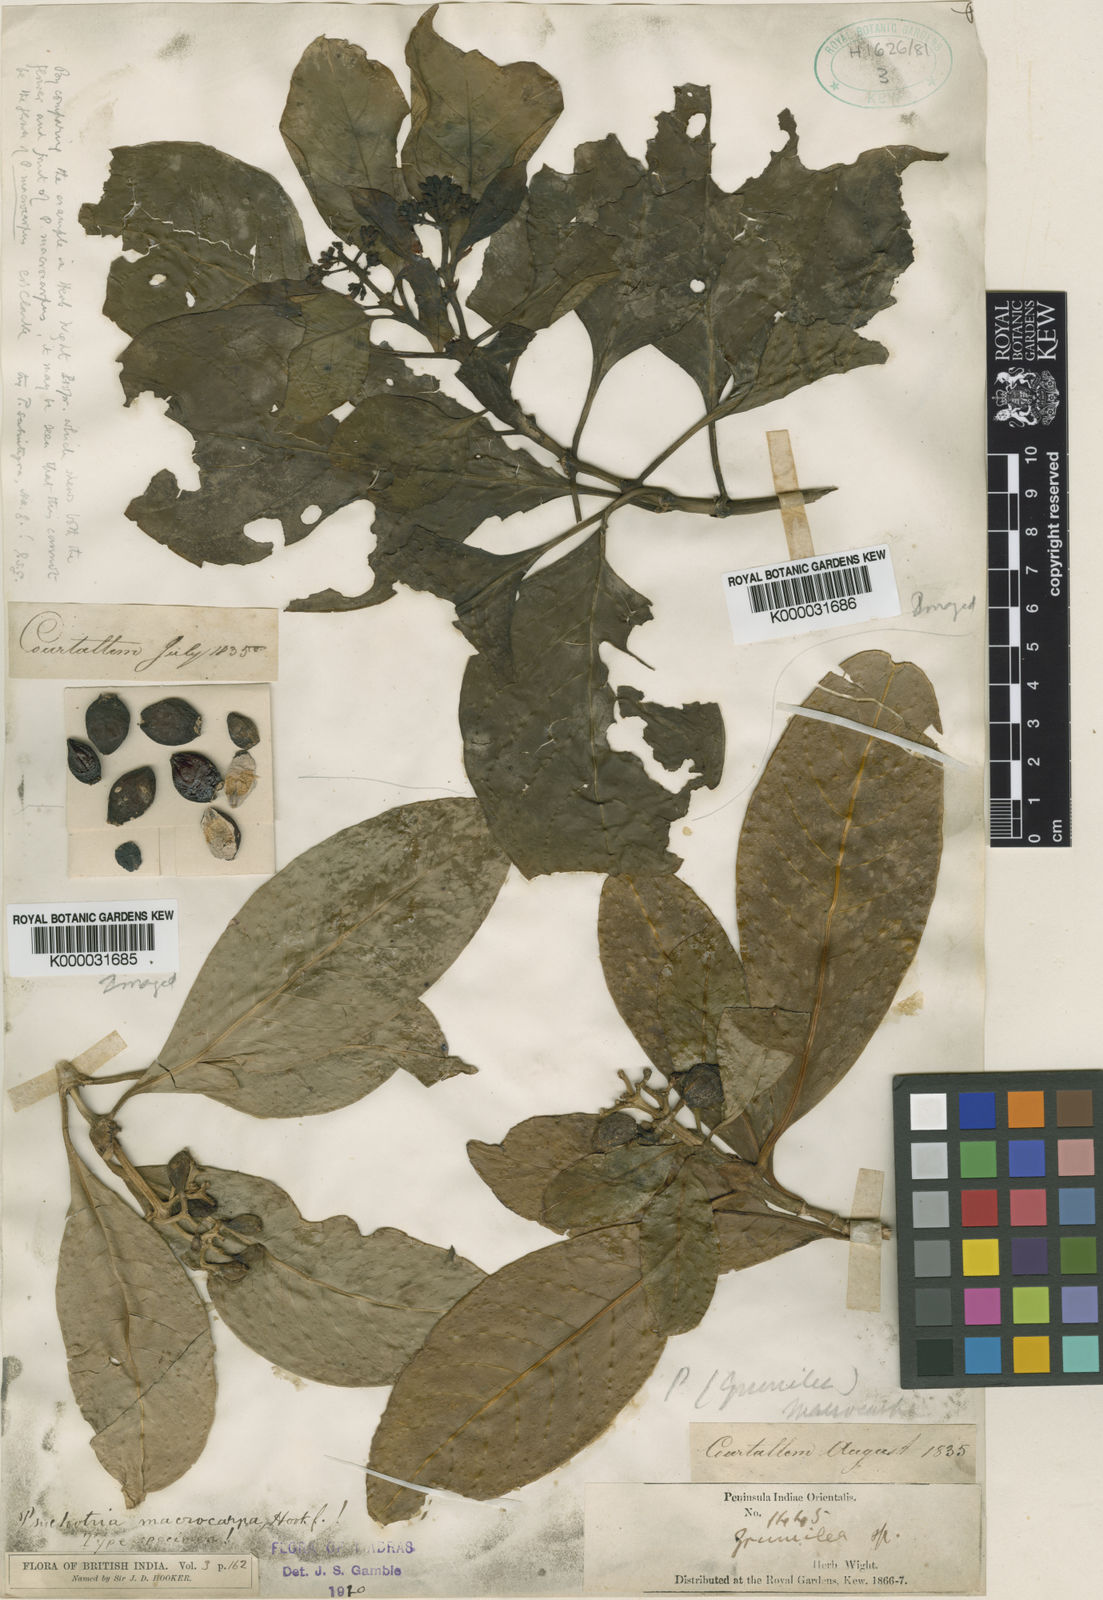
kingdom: Plantae
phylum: Tracheophyta
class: Magnoliopsida
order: Gentianales
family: Rubiaceae
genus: Psychotria
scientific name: Psychotria macrocarpa
